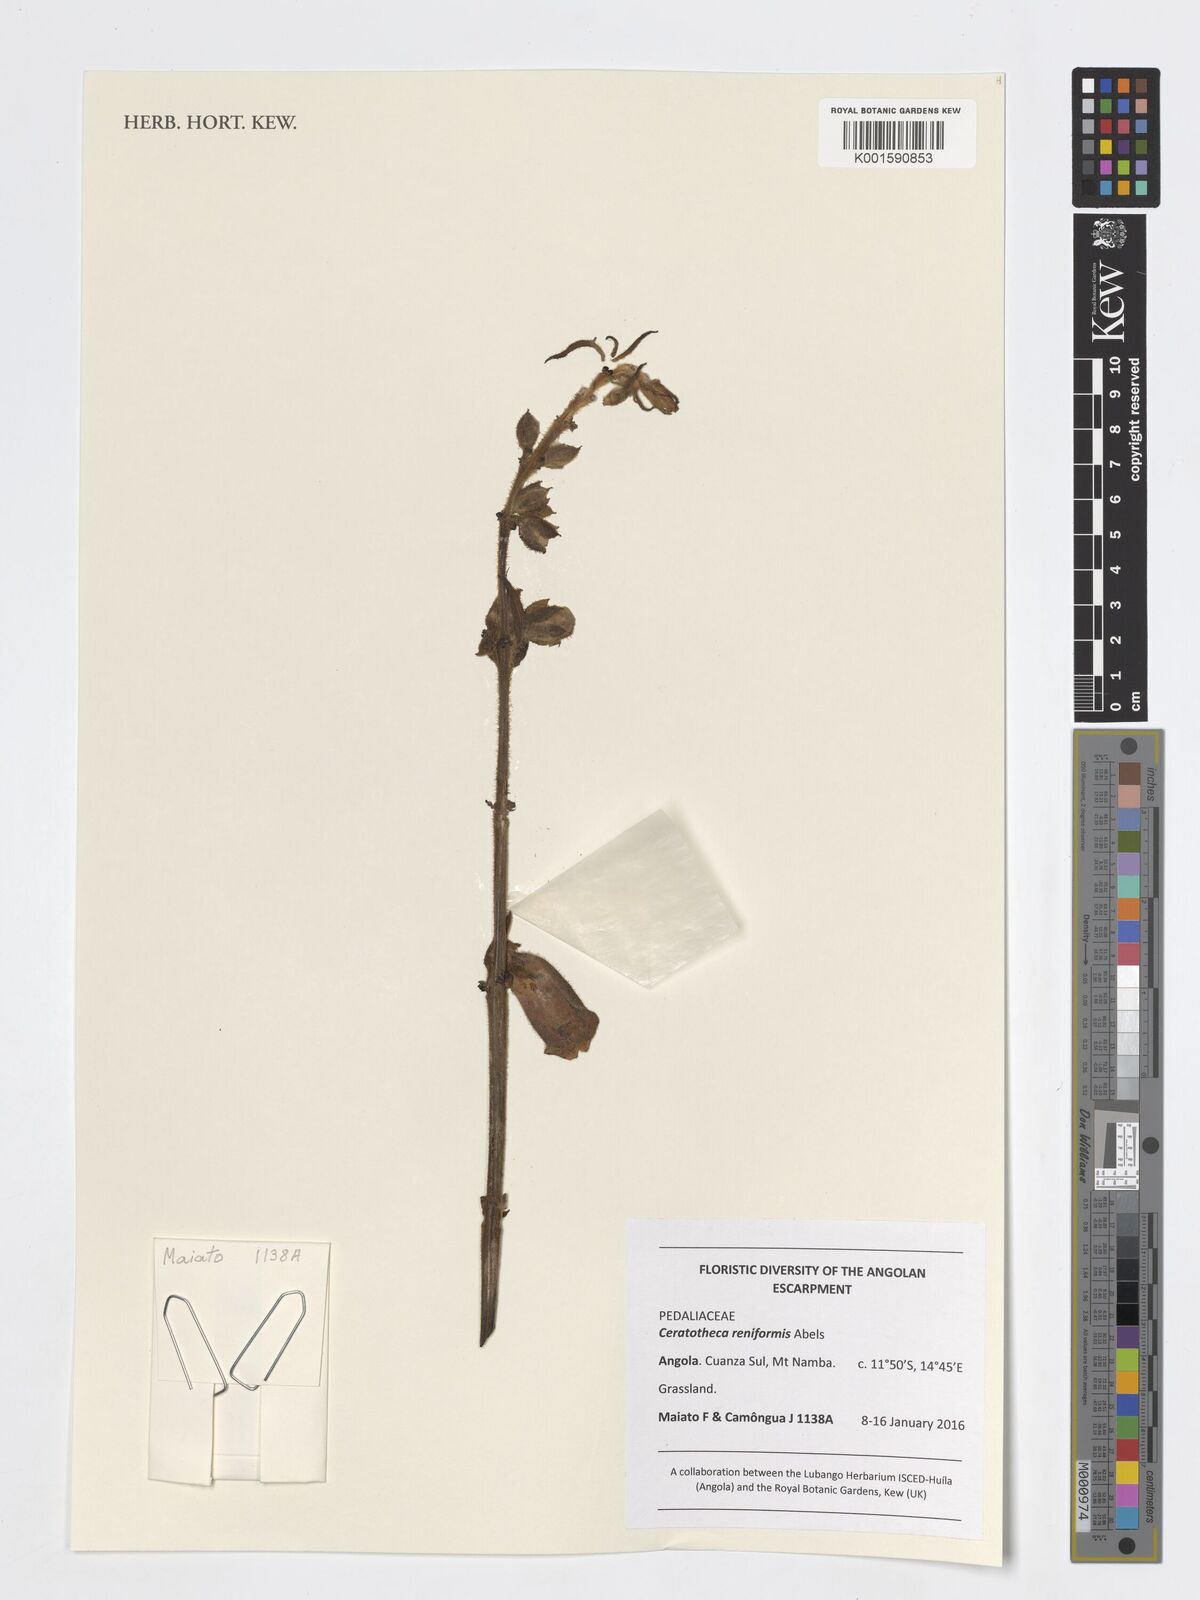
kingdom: Plantae
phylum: Tracheophyta
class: Magnoliopsida
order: Lamiales
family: Pedaliaceae
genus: Sesamum
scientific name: Sesamum reniforme
